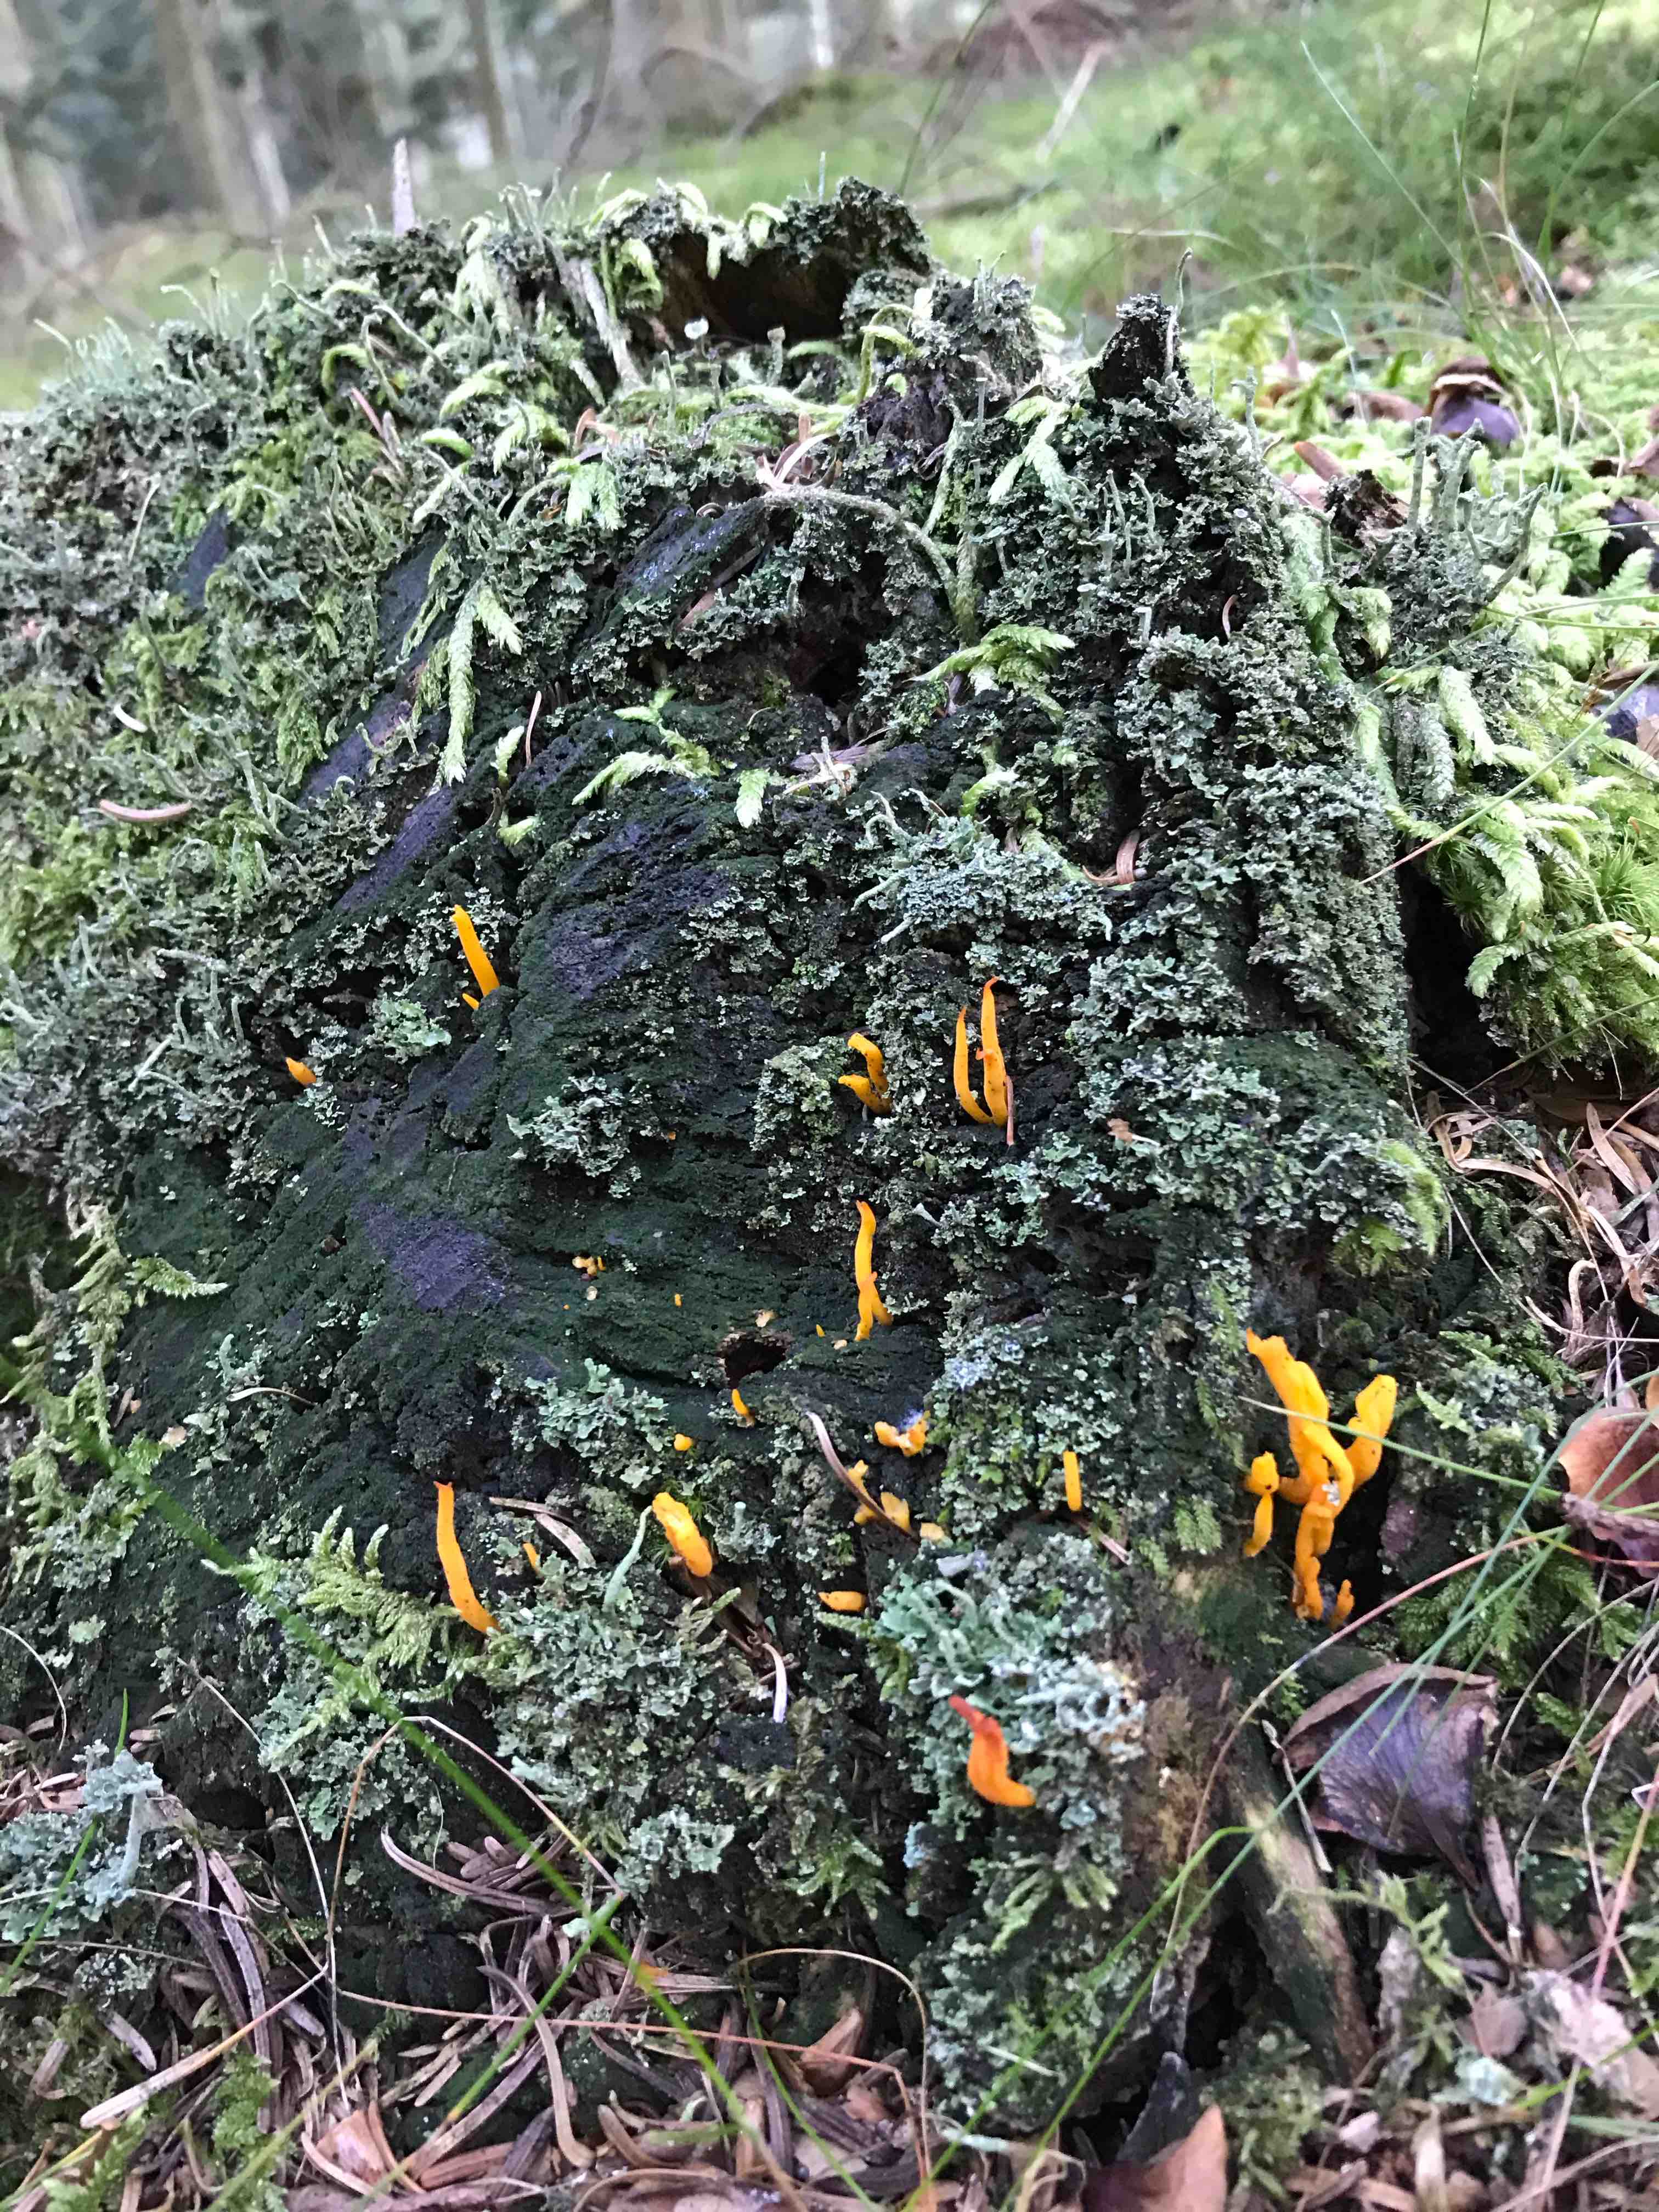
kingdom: Fungi
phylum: Basidiomycota
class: Dacrymycetes
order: Dacrymycetales
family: Dacrymycetaceae
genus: Calocera
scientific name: Calocera viscosa
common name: almindelig guldgaffel
